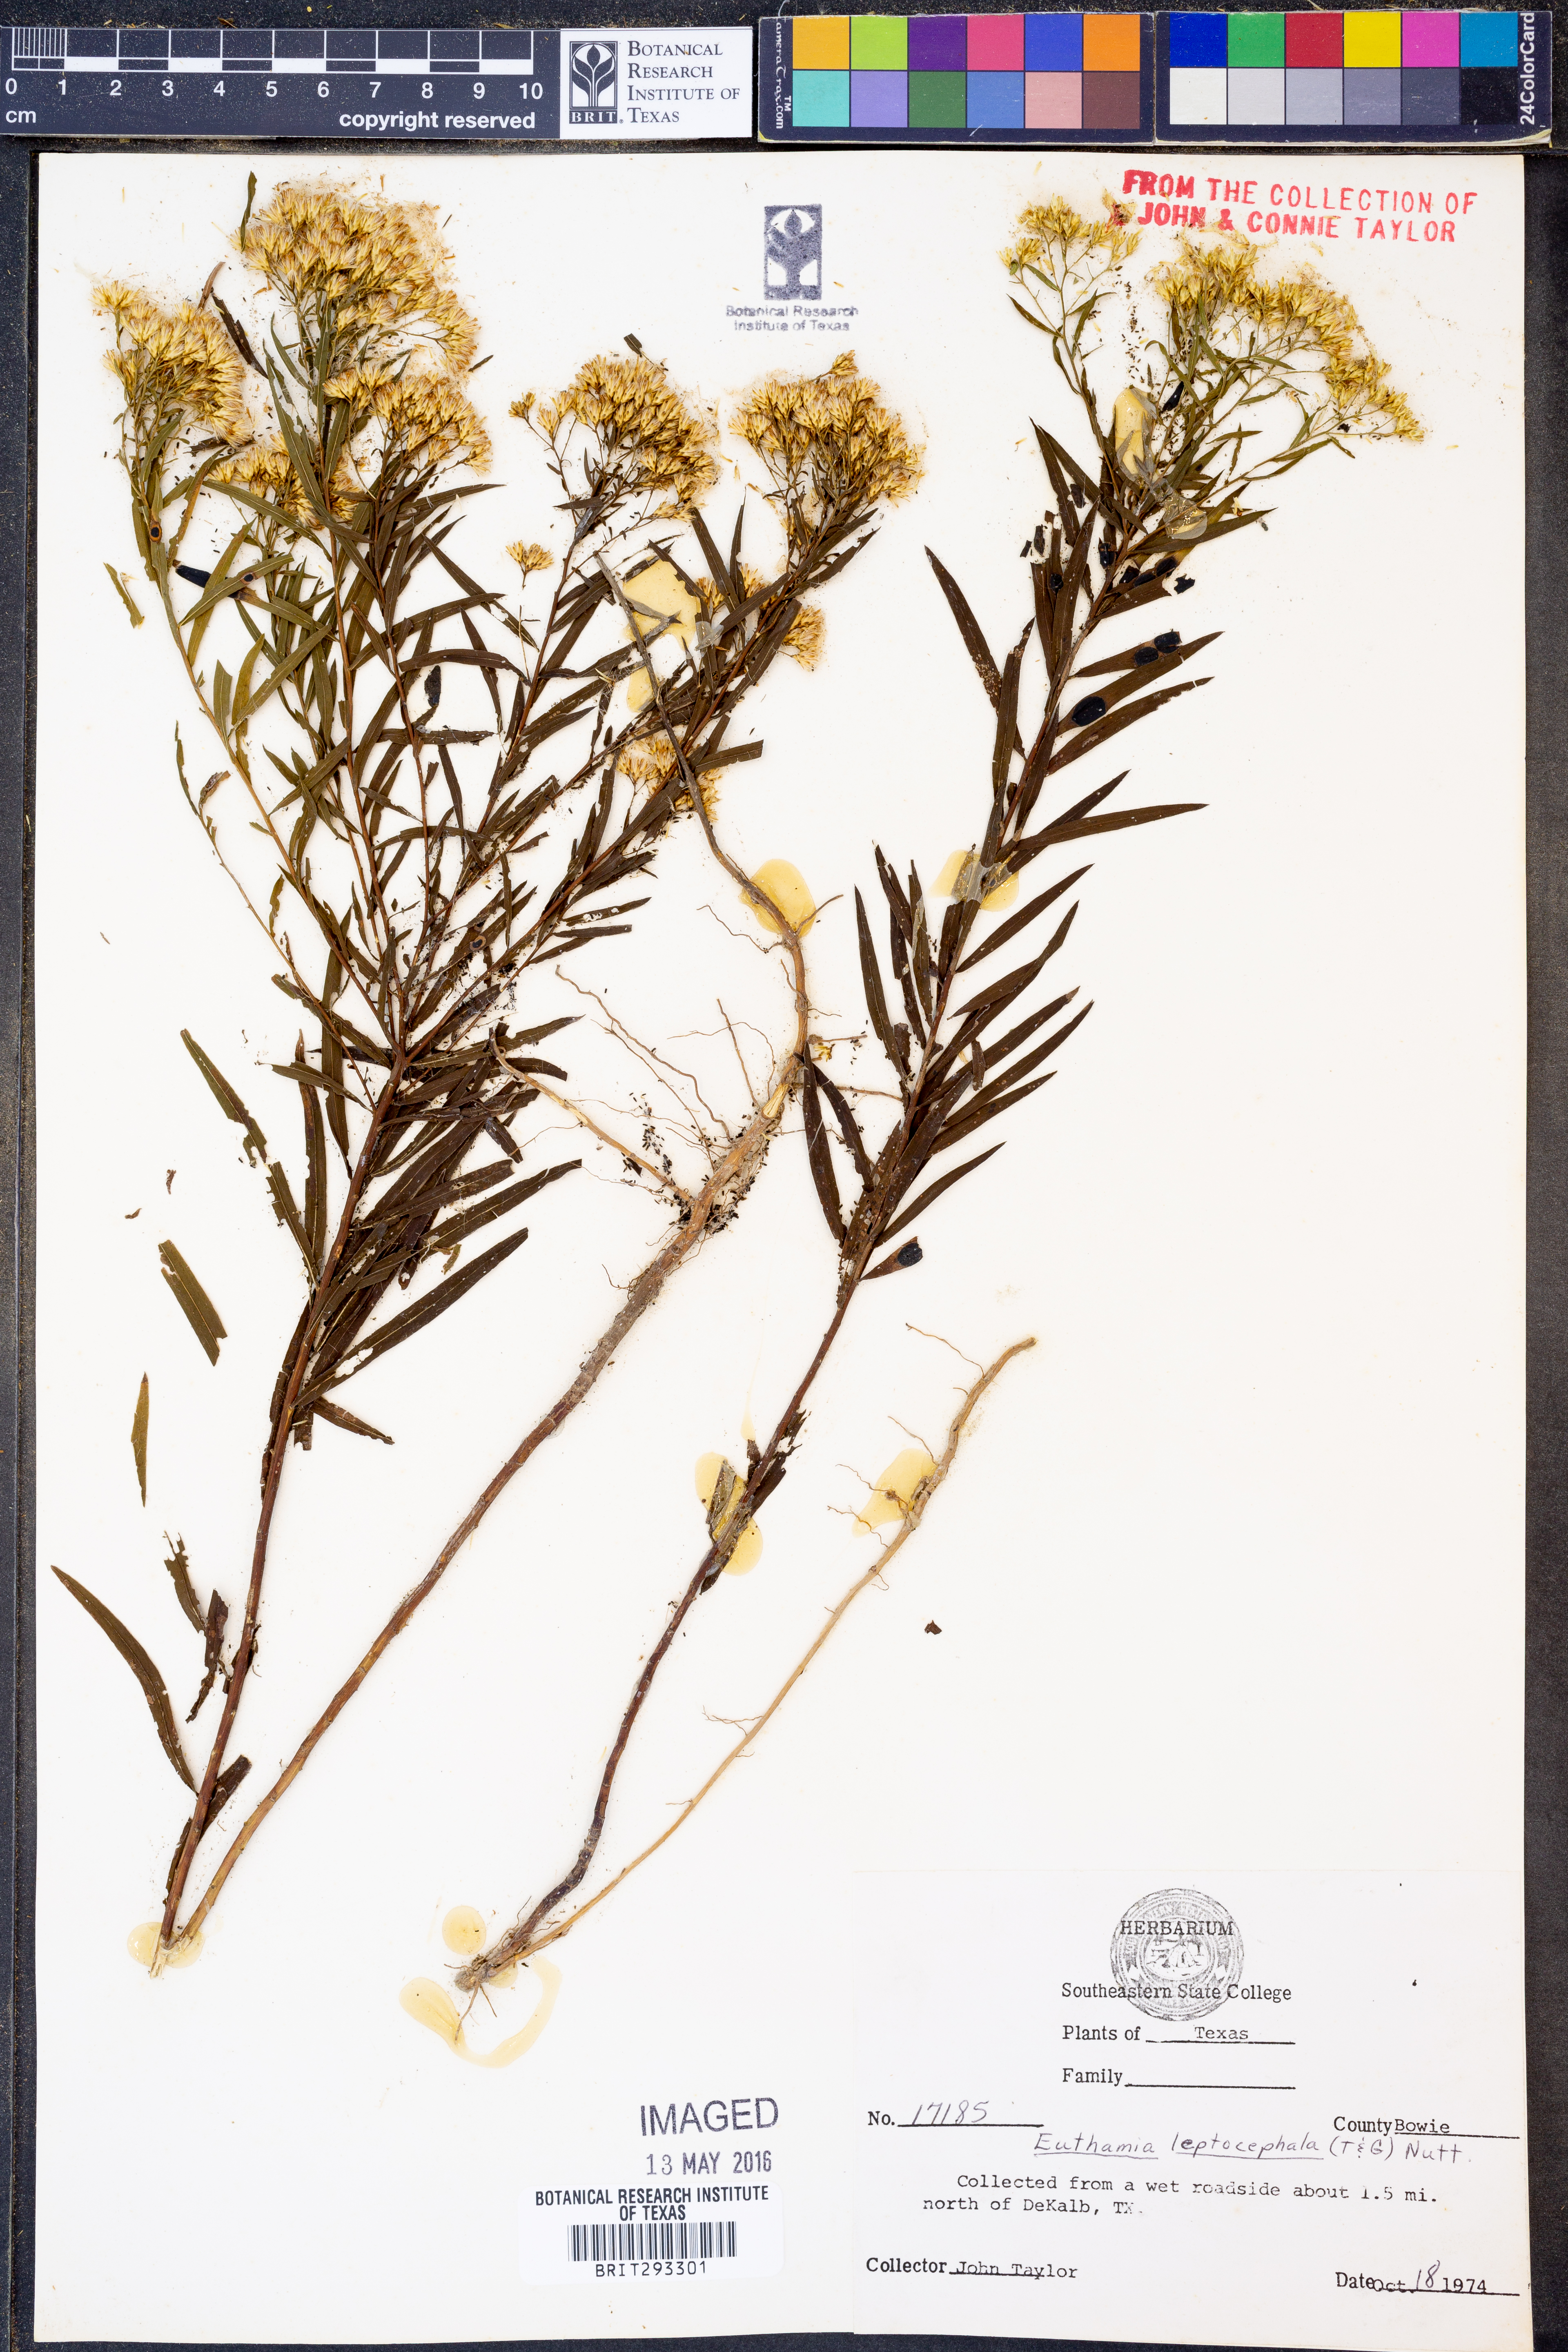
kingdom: Plantae
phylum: Tracheophyta
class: Magnoliopsida
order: Asterales
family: Asteraceae
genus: Euthamia
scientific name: Euthamia leptocephala
